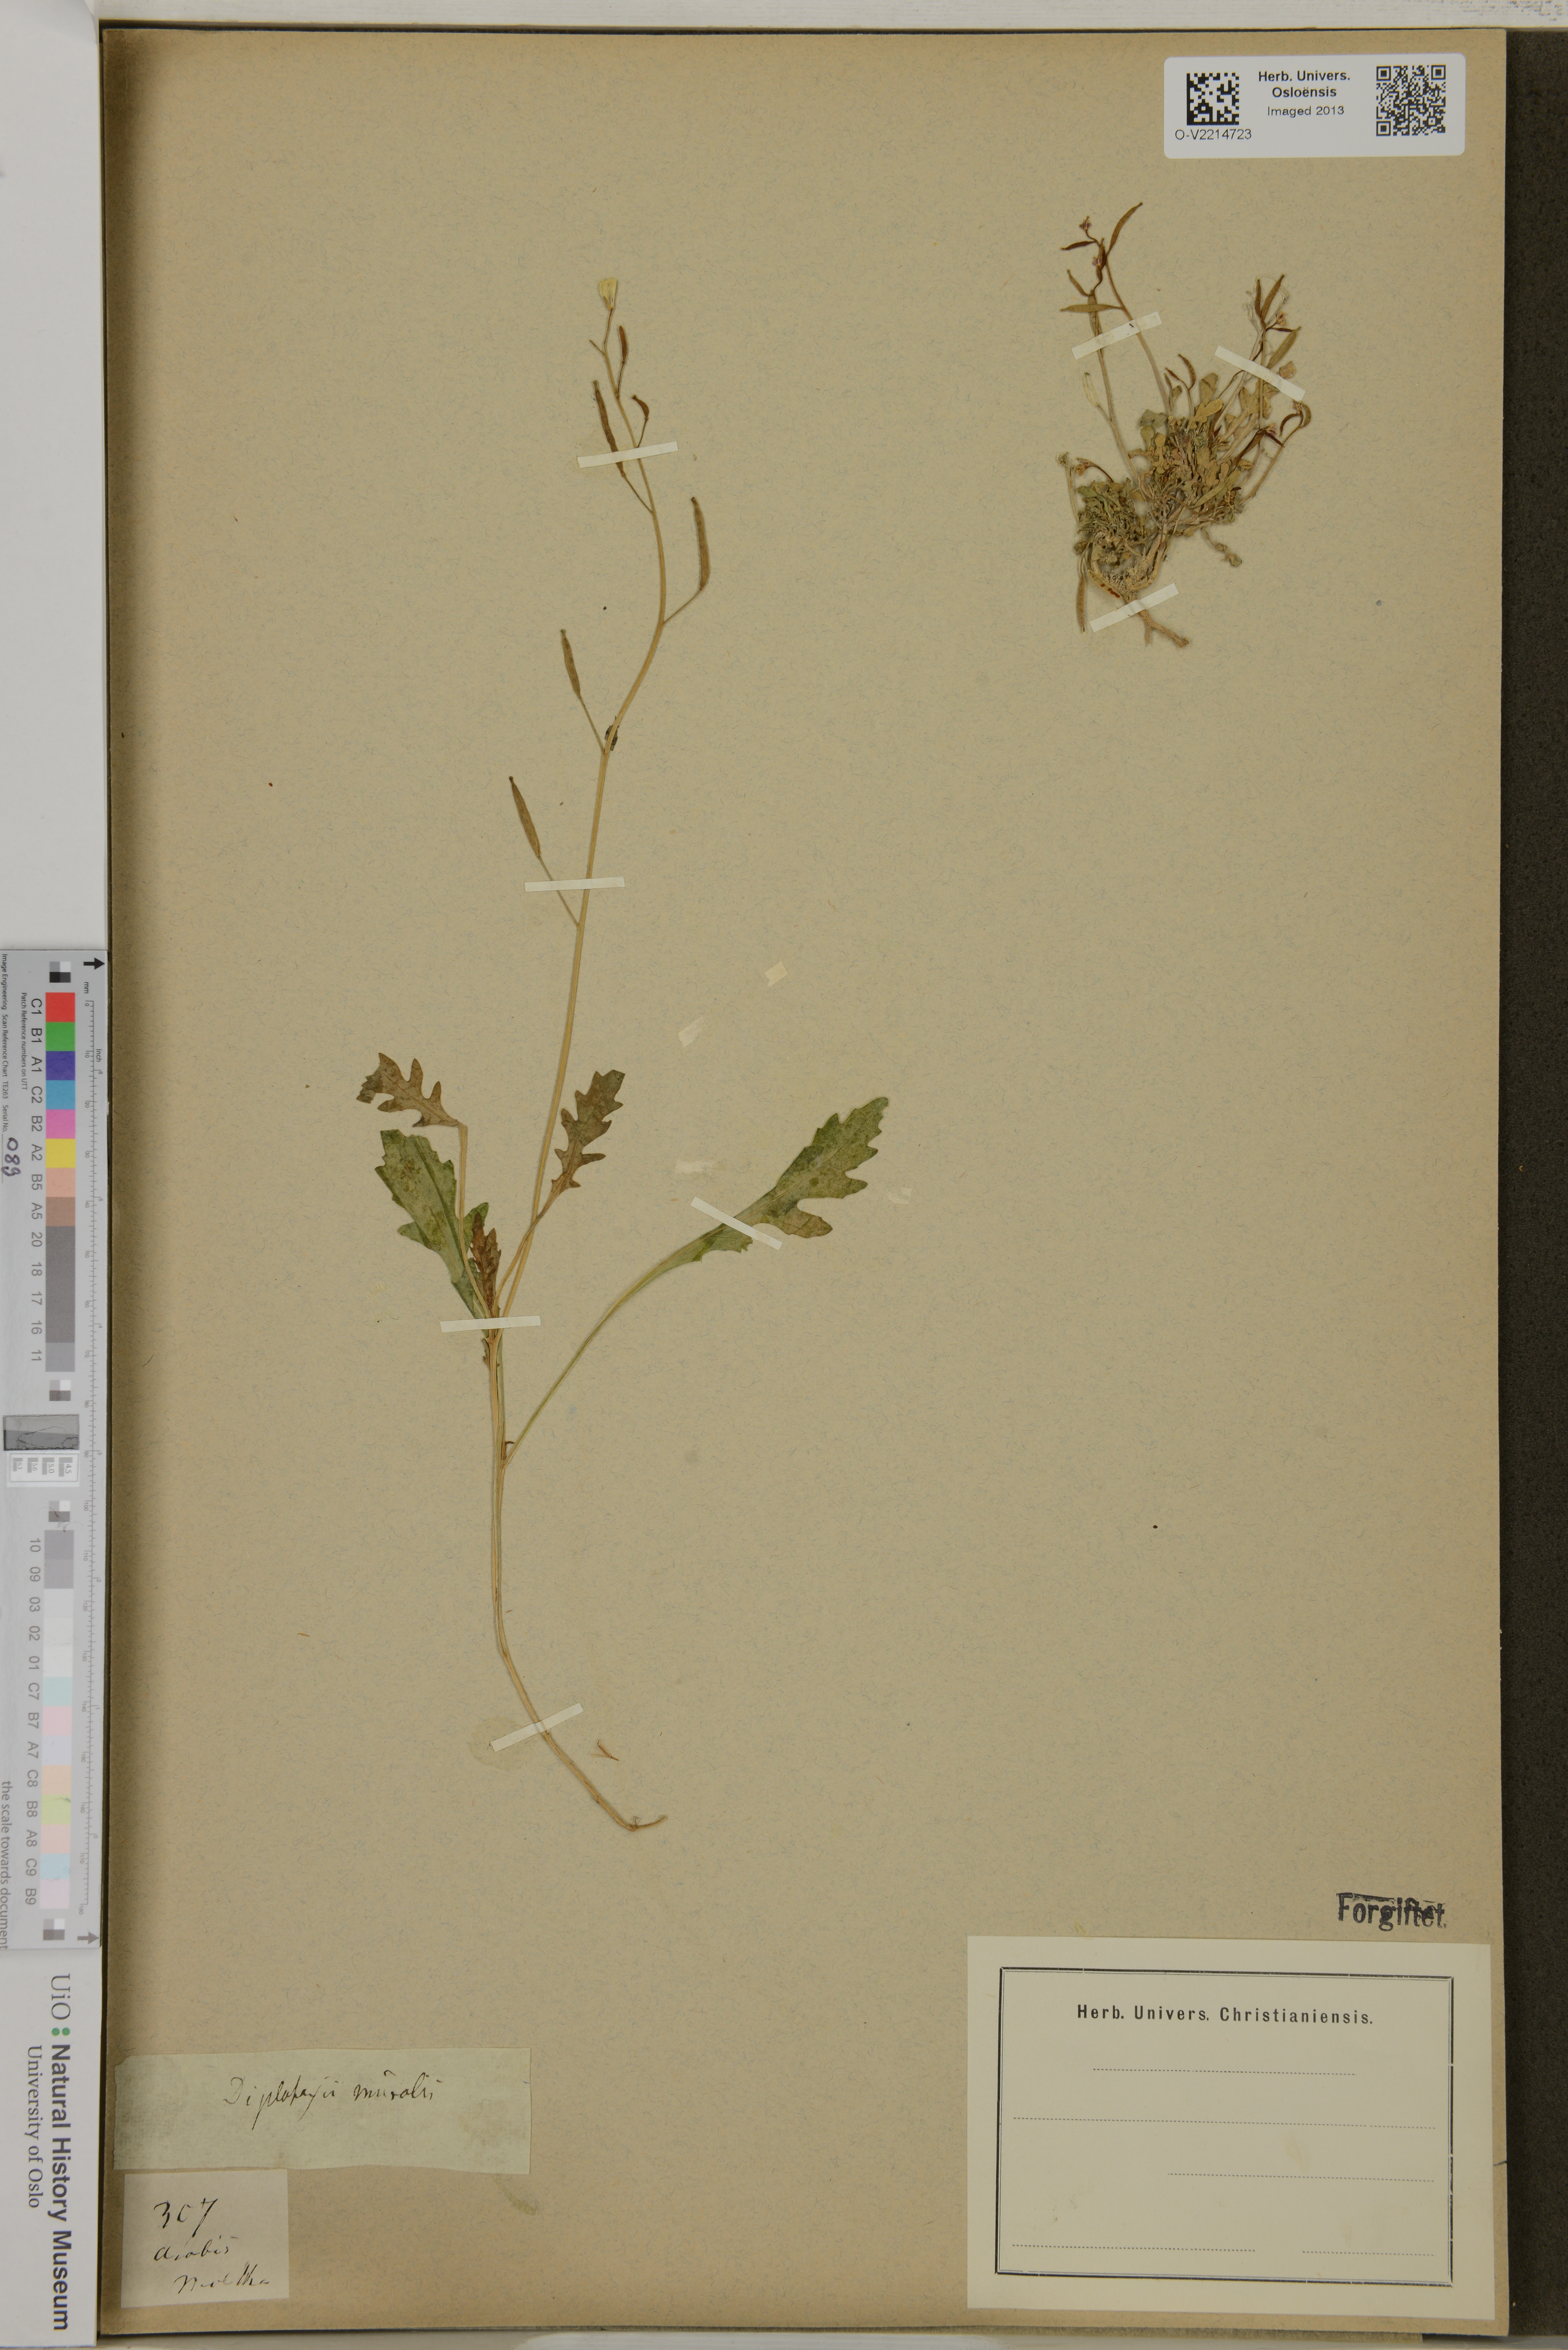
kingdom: Plantae
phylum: Tracheophyta
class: Magnoliopsida
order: Brassicales
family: Brassicaceae
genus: Diplotaxis
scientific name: Diplotaxis muralis
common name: Annual wall-rocket
